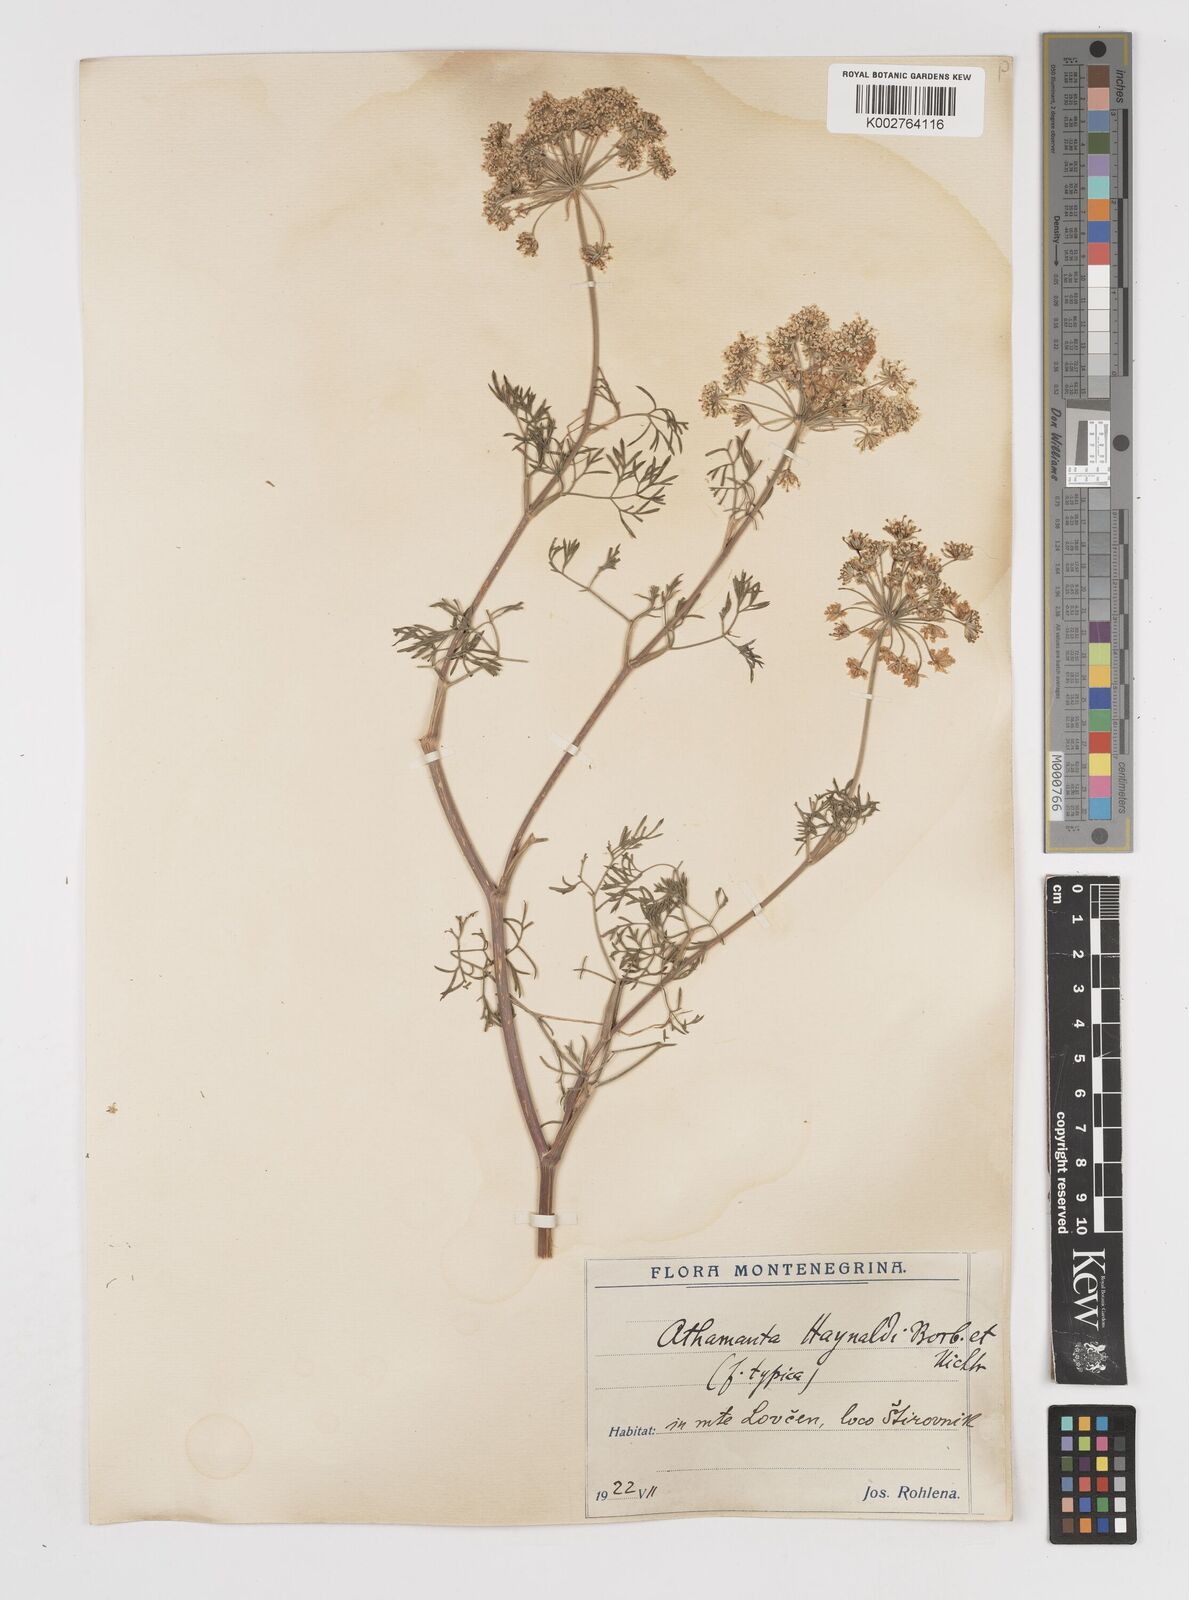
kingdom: Plantae
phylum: Tracheophyta
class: Magnoliopsida
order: Apiales
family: Apiaceae
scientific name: Apiaceae
